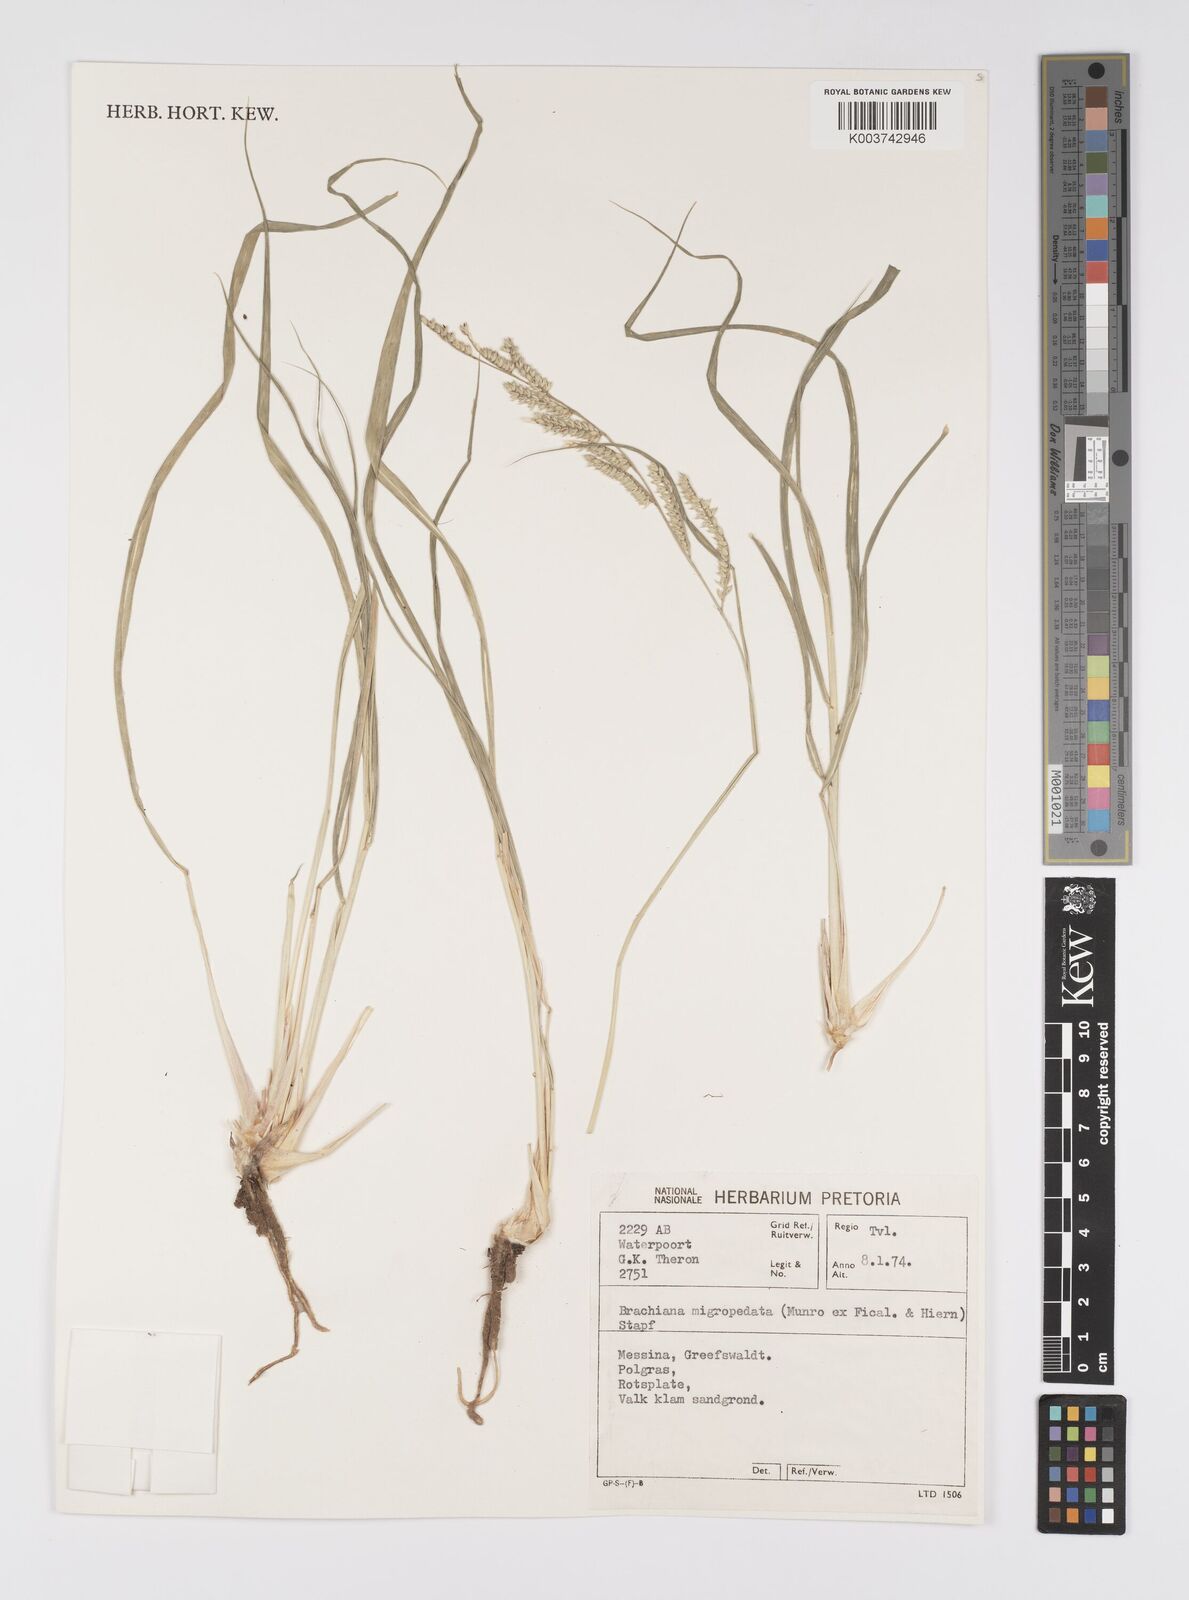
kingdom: Plantae
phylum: Tracheophyta
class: Liliopsida
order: Poales
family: Poaceae
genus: Urochloa
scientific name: Urochloa nigropedata
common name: Spotted signal grass
